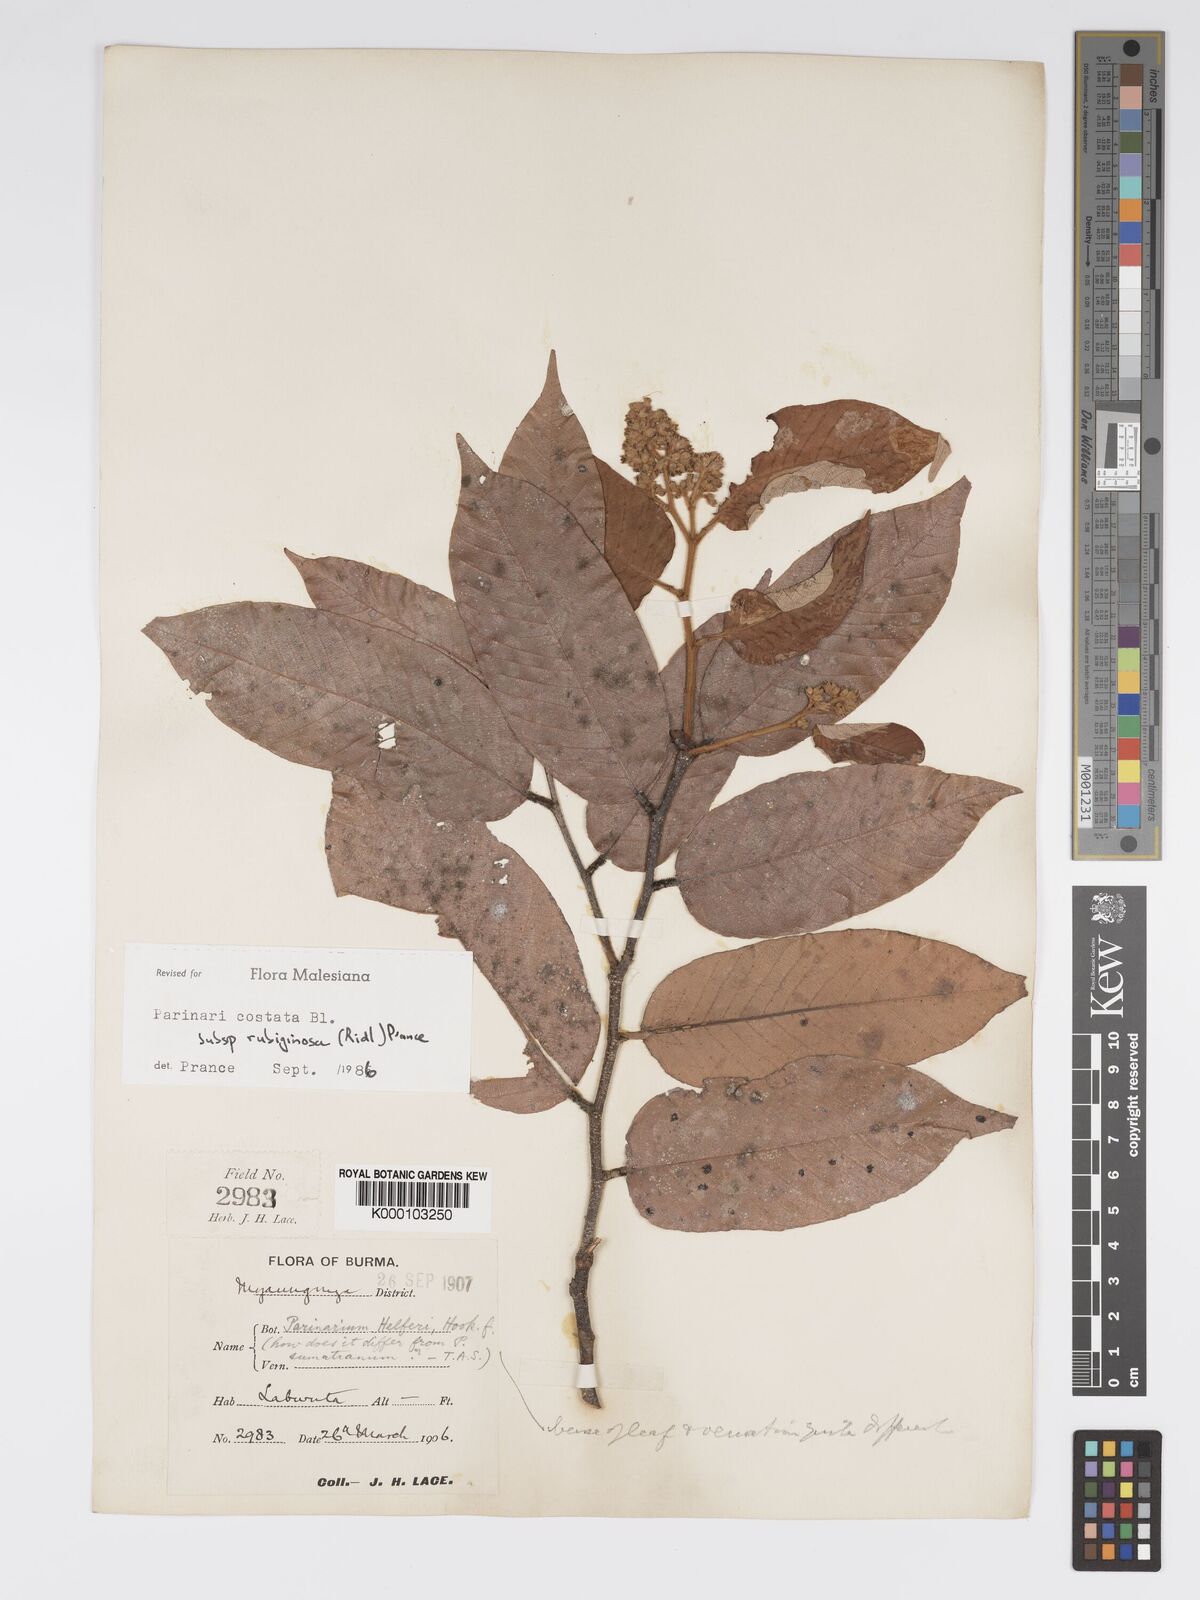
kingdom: Plantae
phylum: Tracheophyta
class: Magnoliopsida
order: Malpighiales
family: Chrysobalanaceae
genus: Parinari
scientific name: Parinari costata
